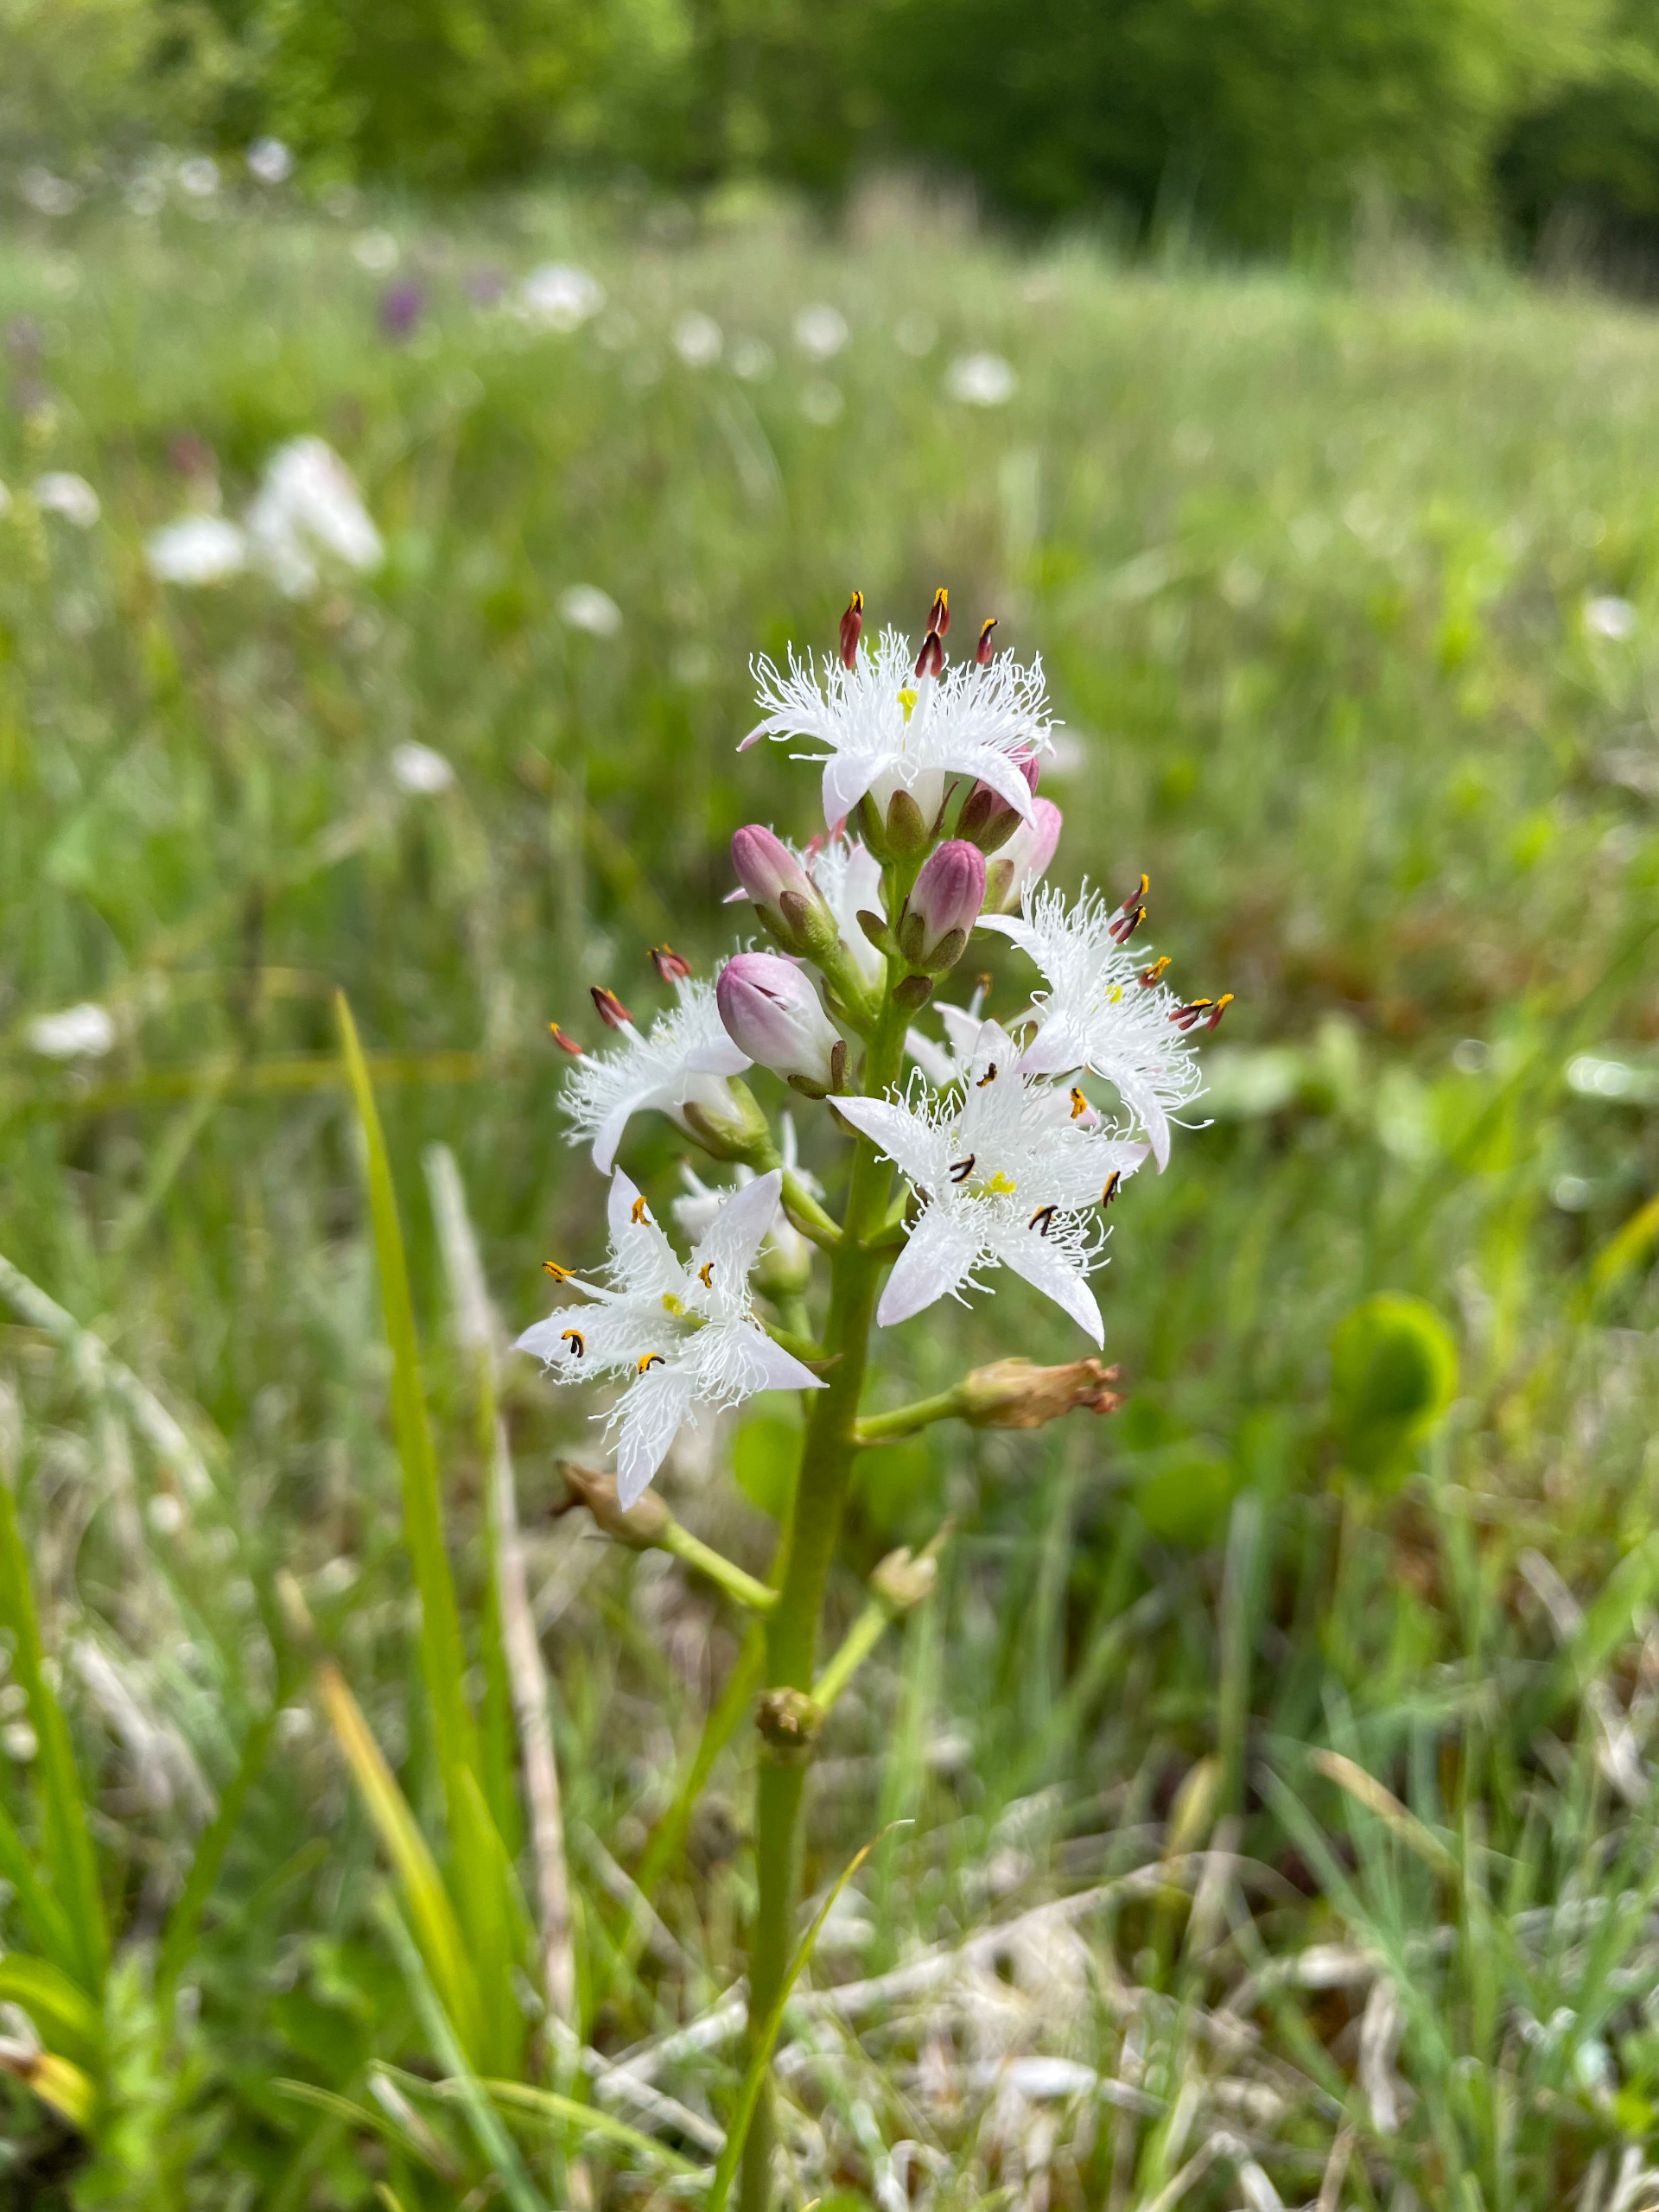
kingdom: Plantae
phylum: Tracheophyta
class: Magnoliopsida
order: Asterales
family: Menyanthaceae
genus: Menyanthes
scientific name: Menyanthes trifoliata
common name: Bukkeblad
